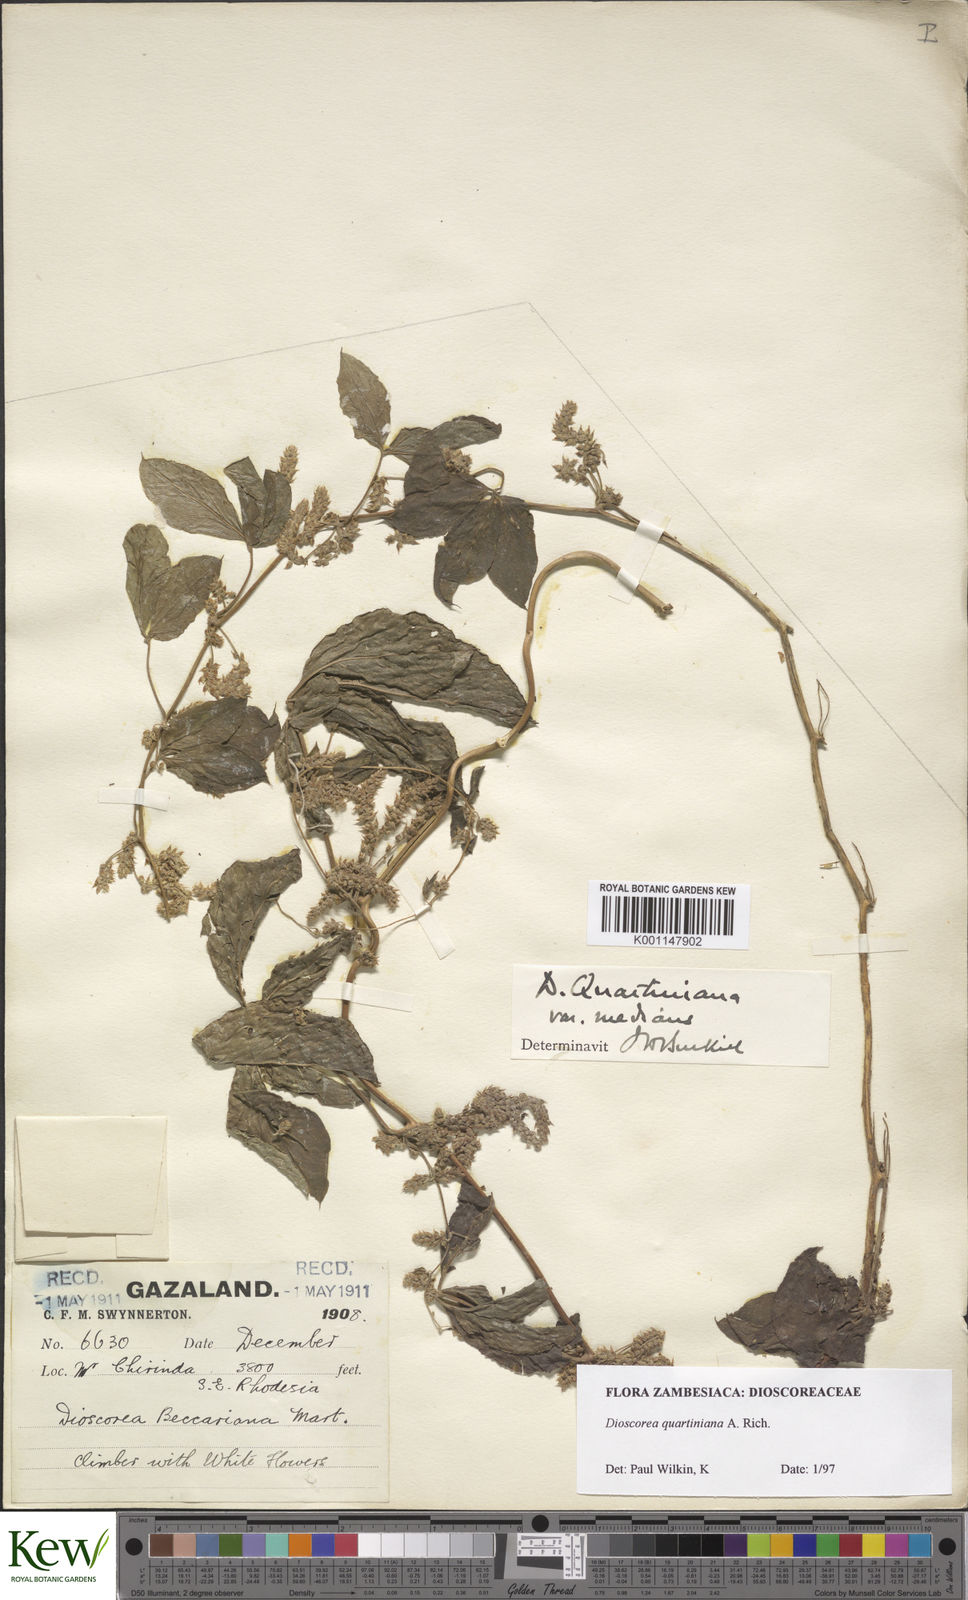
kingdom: Plantae
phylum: Tracheophyta
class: Liliopsida
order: Dioscoreales
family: Dioscoreaceae
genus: Dioscorea
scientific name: Dioscorea quartiniana
